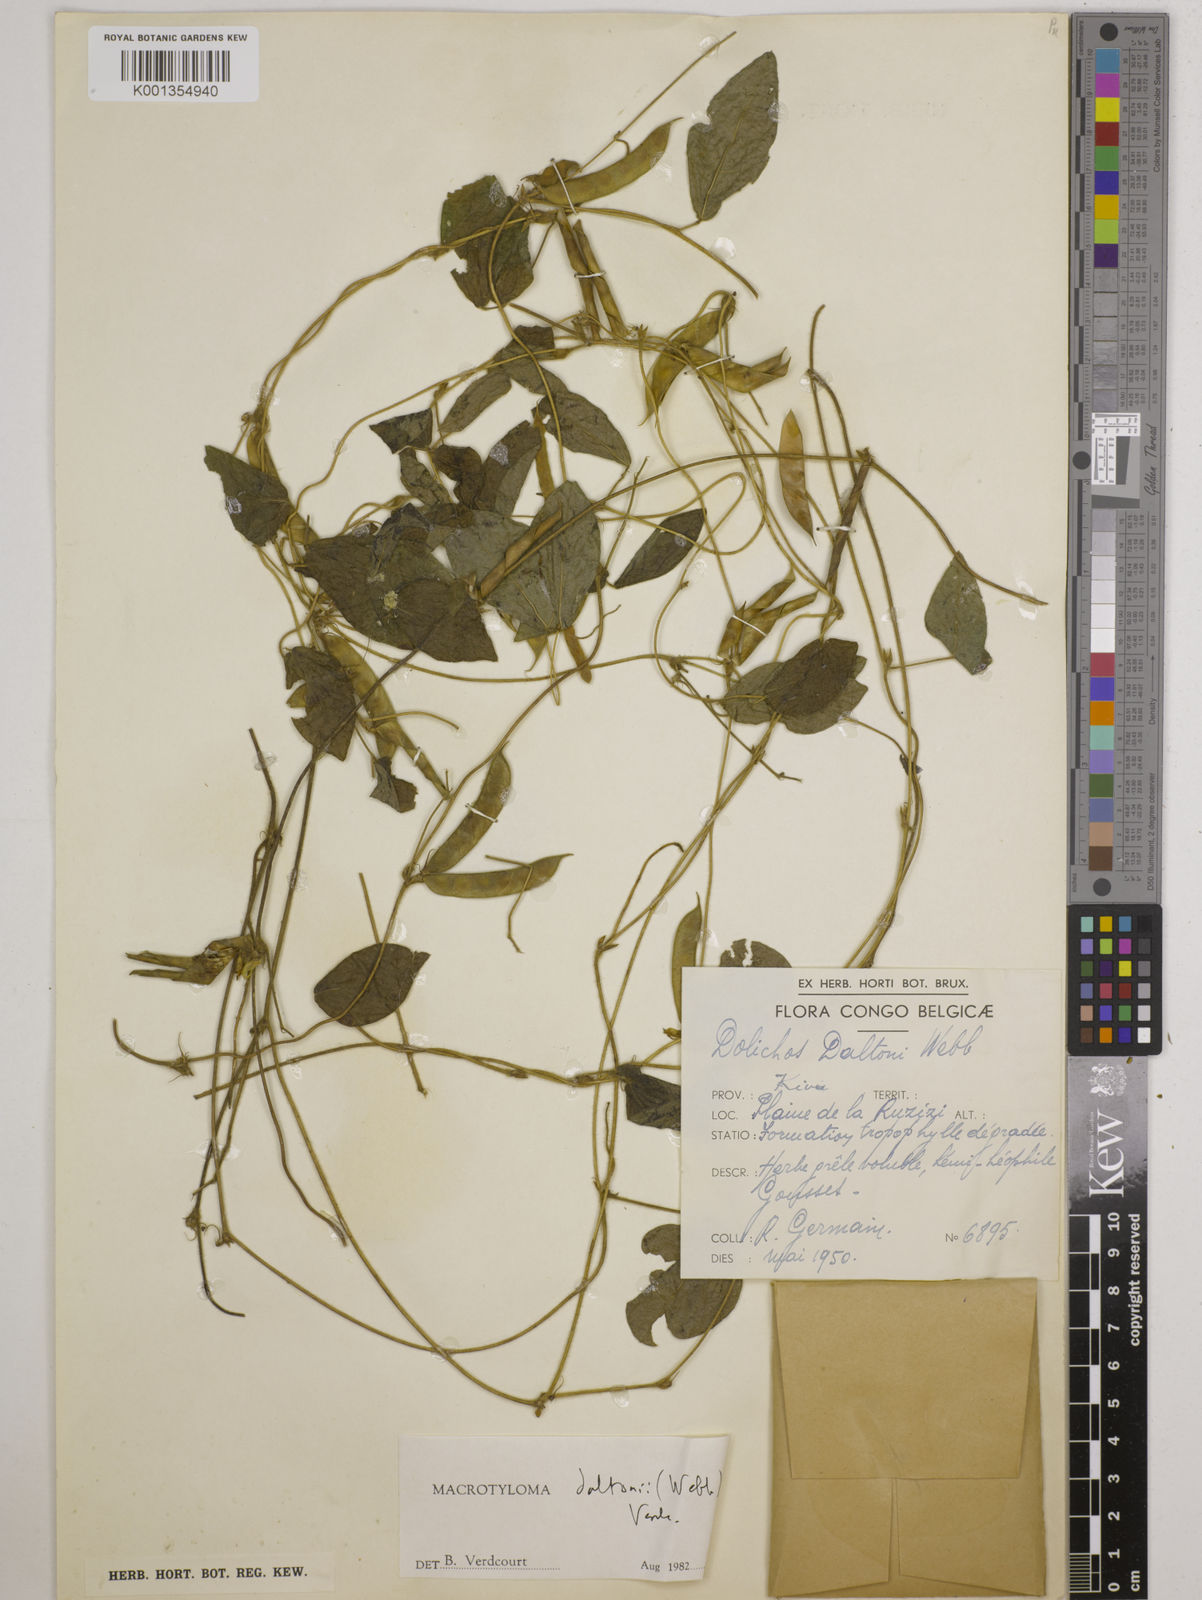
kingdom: Plantae
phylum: Tracheophyta
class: Magnoliopsida
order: Fabales
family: Fabaceae
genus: Macrotyloma
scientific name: Macrotyloma daltonii
